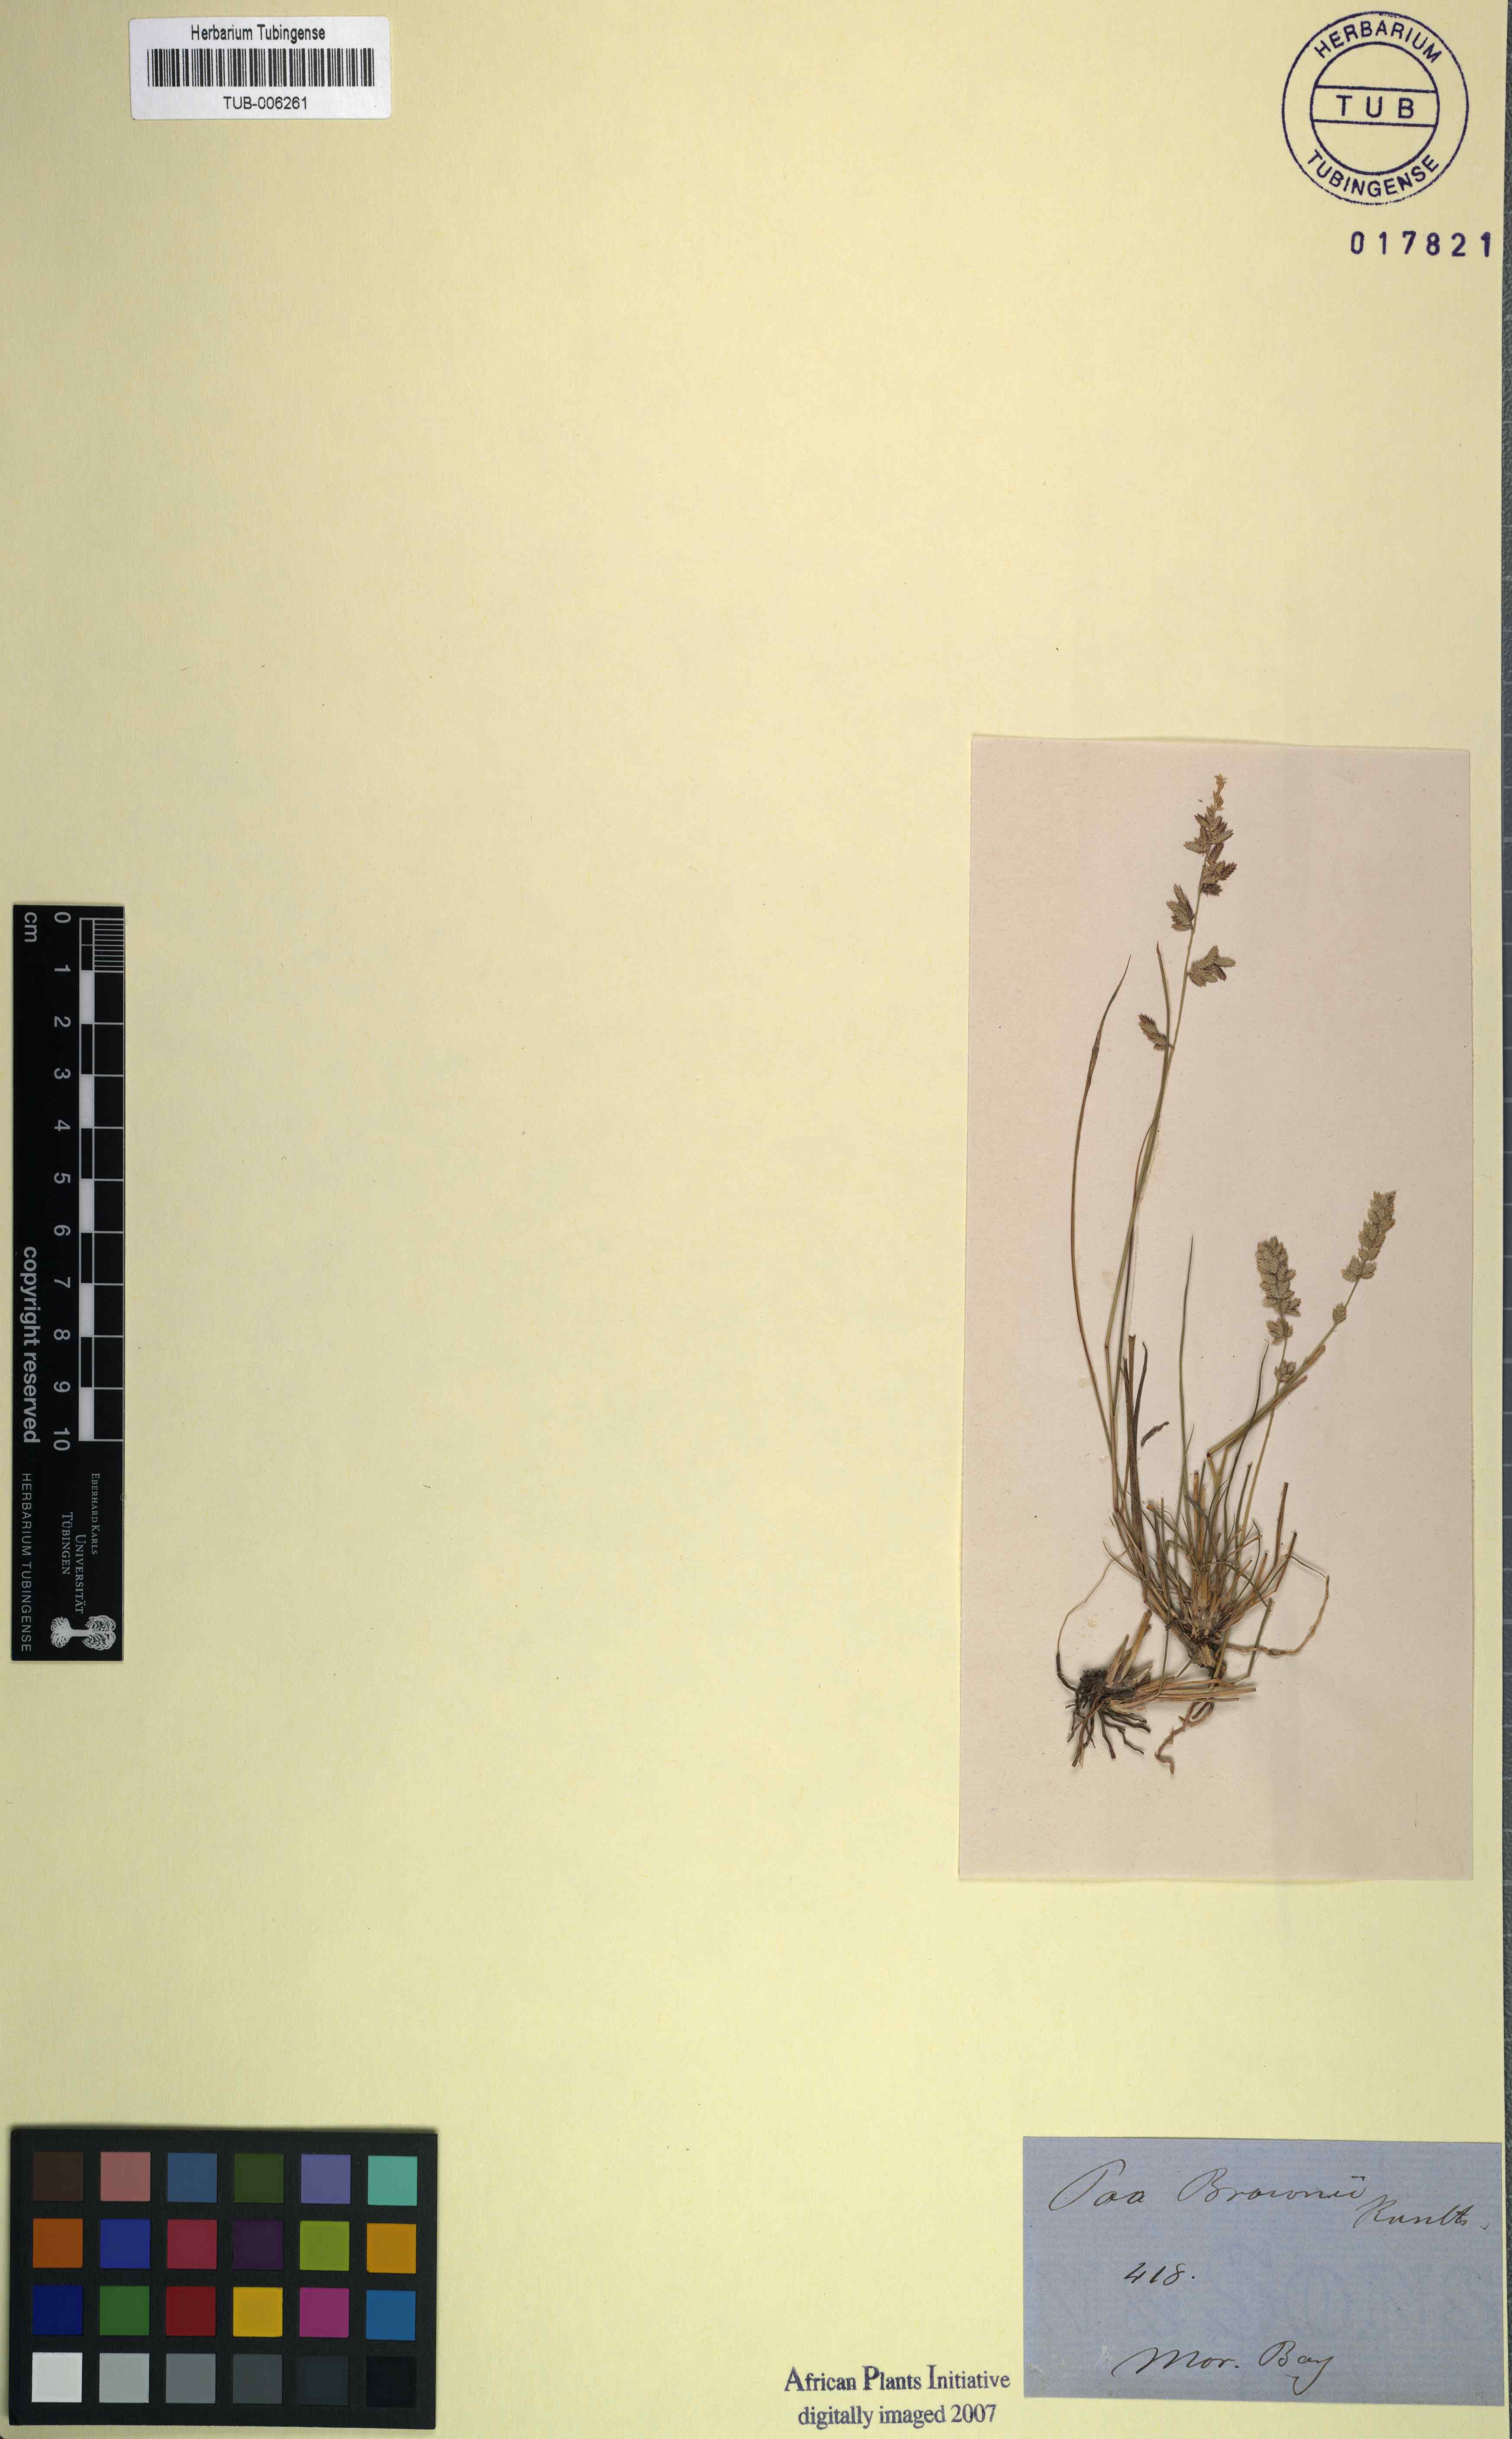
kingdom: Plantae
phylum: Tracheophyta
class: Liliopsida
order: Poales
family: Poaceae
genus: Eragrostis
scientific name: Eragrostis brownii
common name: Lovegrass
